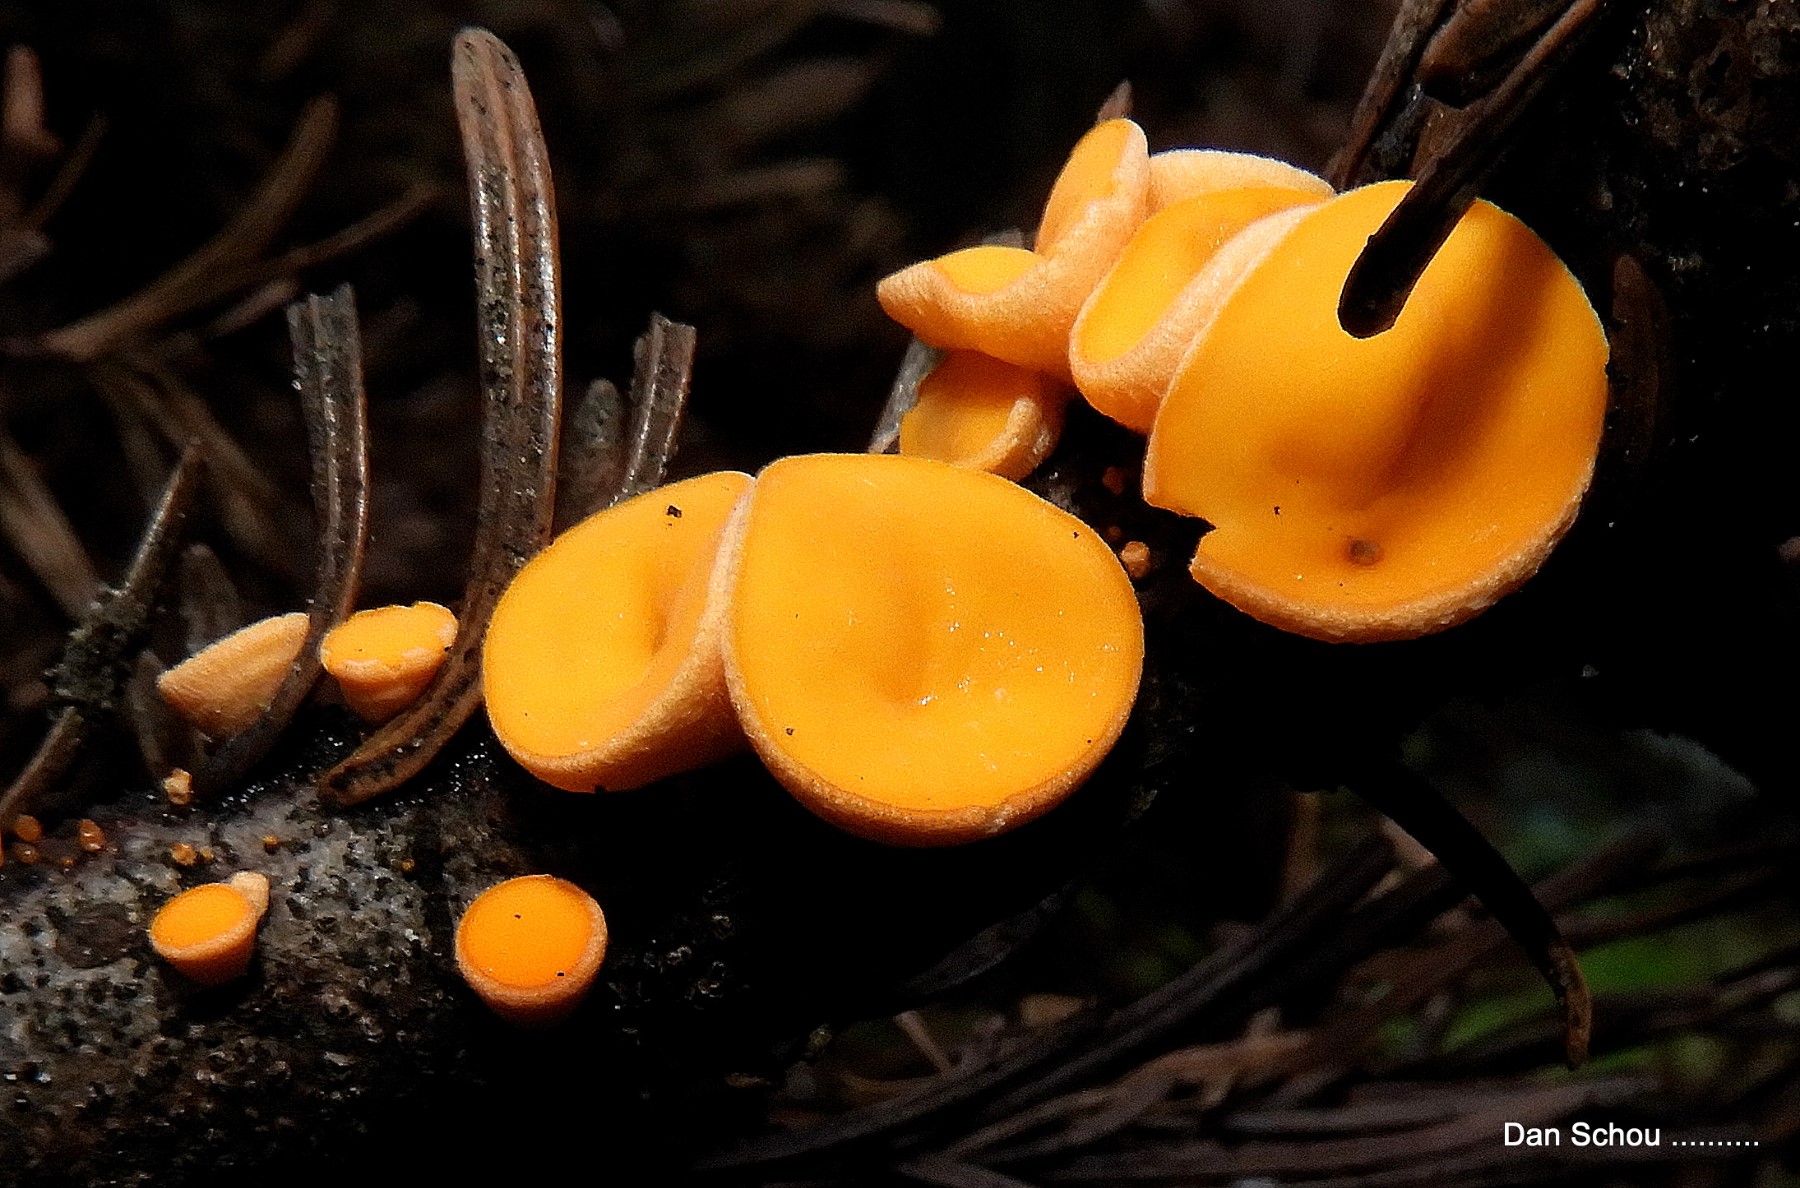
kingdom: Fungi
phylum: Ascomycota
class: Pezizomycetes
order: Pezizales
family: Sarcoscyphaceae
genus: Pithya
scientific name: Pithya vulgaris
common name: stor dukatbæger
